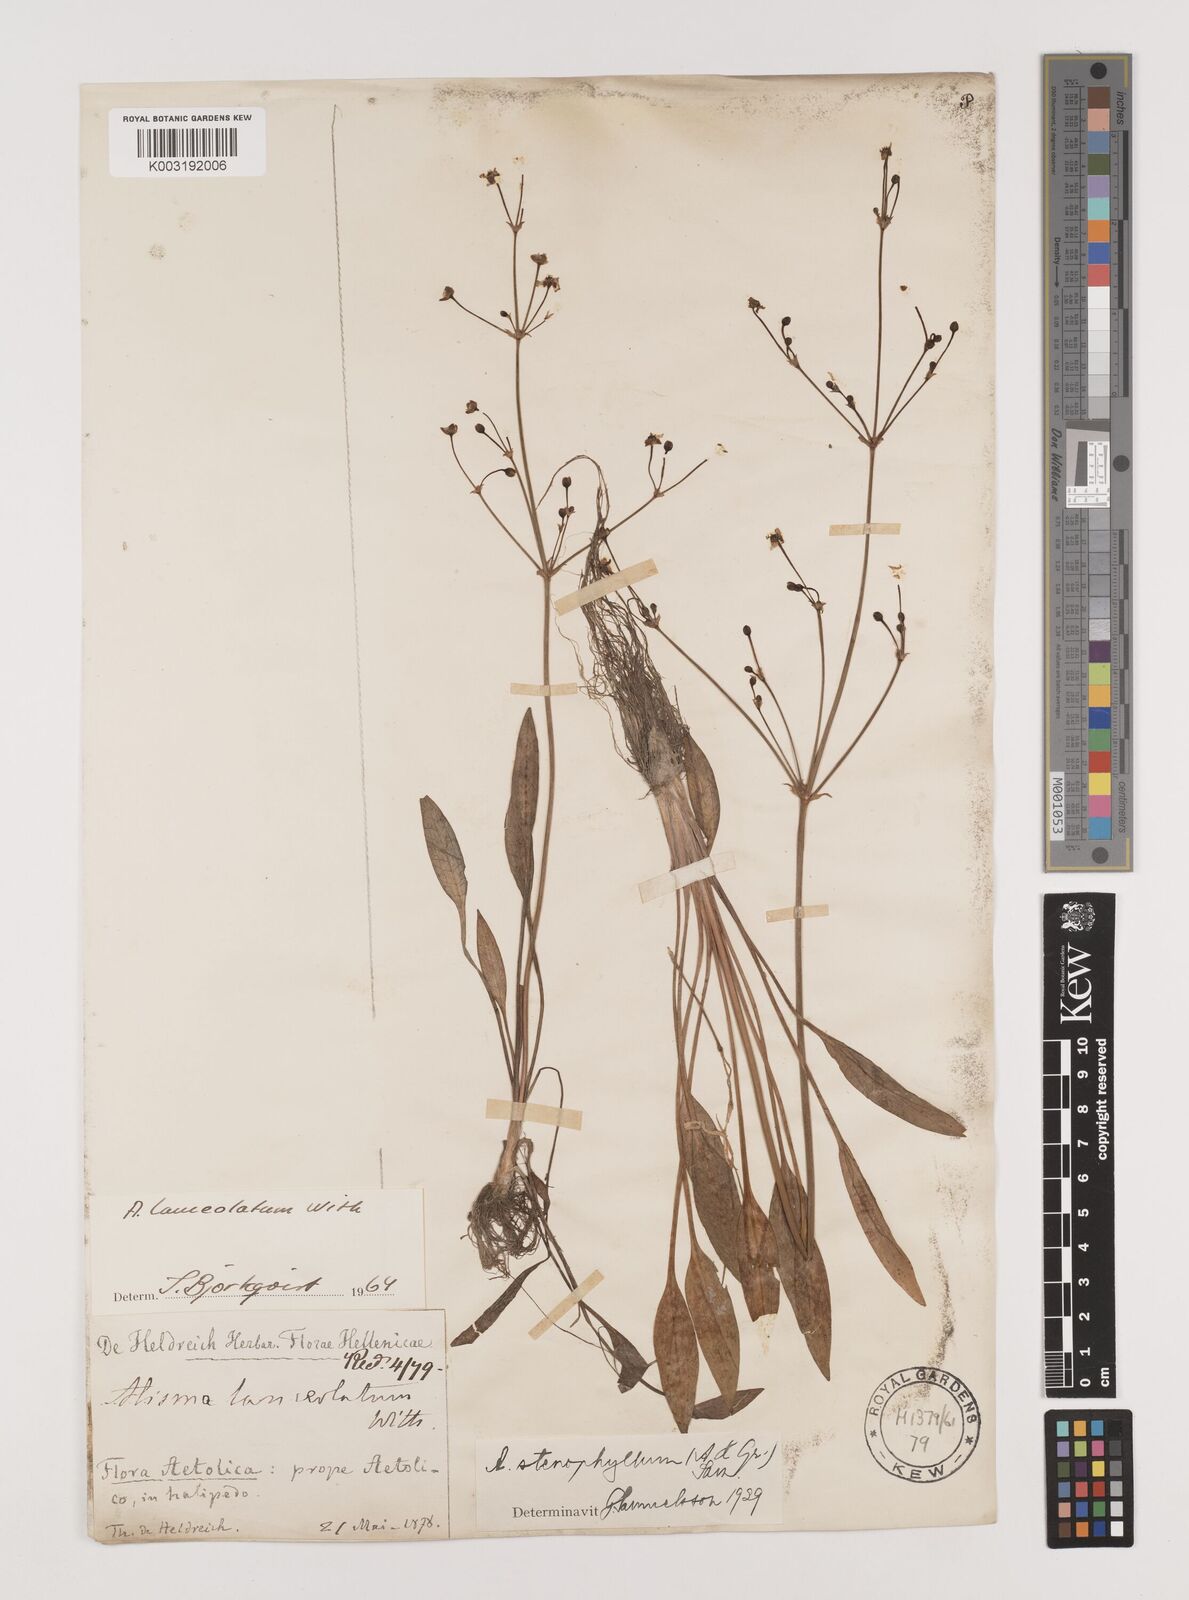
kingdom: Plantae
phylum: Tracheophyta
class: Liliopsida
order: Alismatales
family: Alismataceae
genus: Alisma
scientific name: Alisma lanceolatum
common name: Narrow-leaved water-plantain
